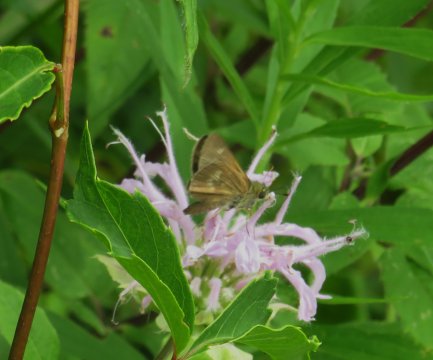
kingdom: Animalia
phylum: Arthropoda
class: Insecta
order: Lepidoptera
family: Hesperiidae
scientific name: Hesperiidae
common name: Skippers
